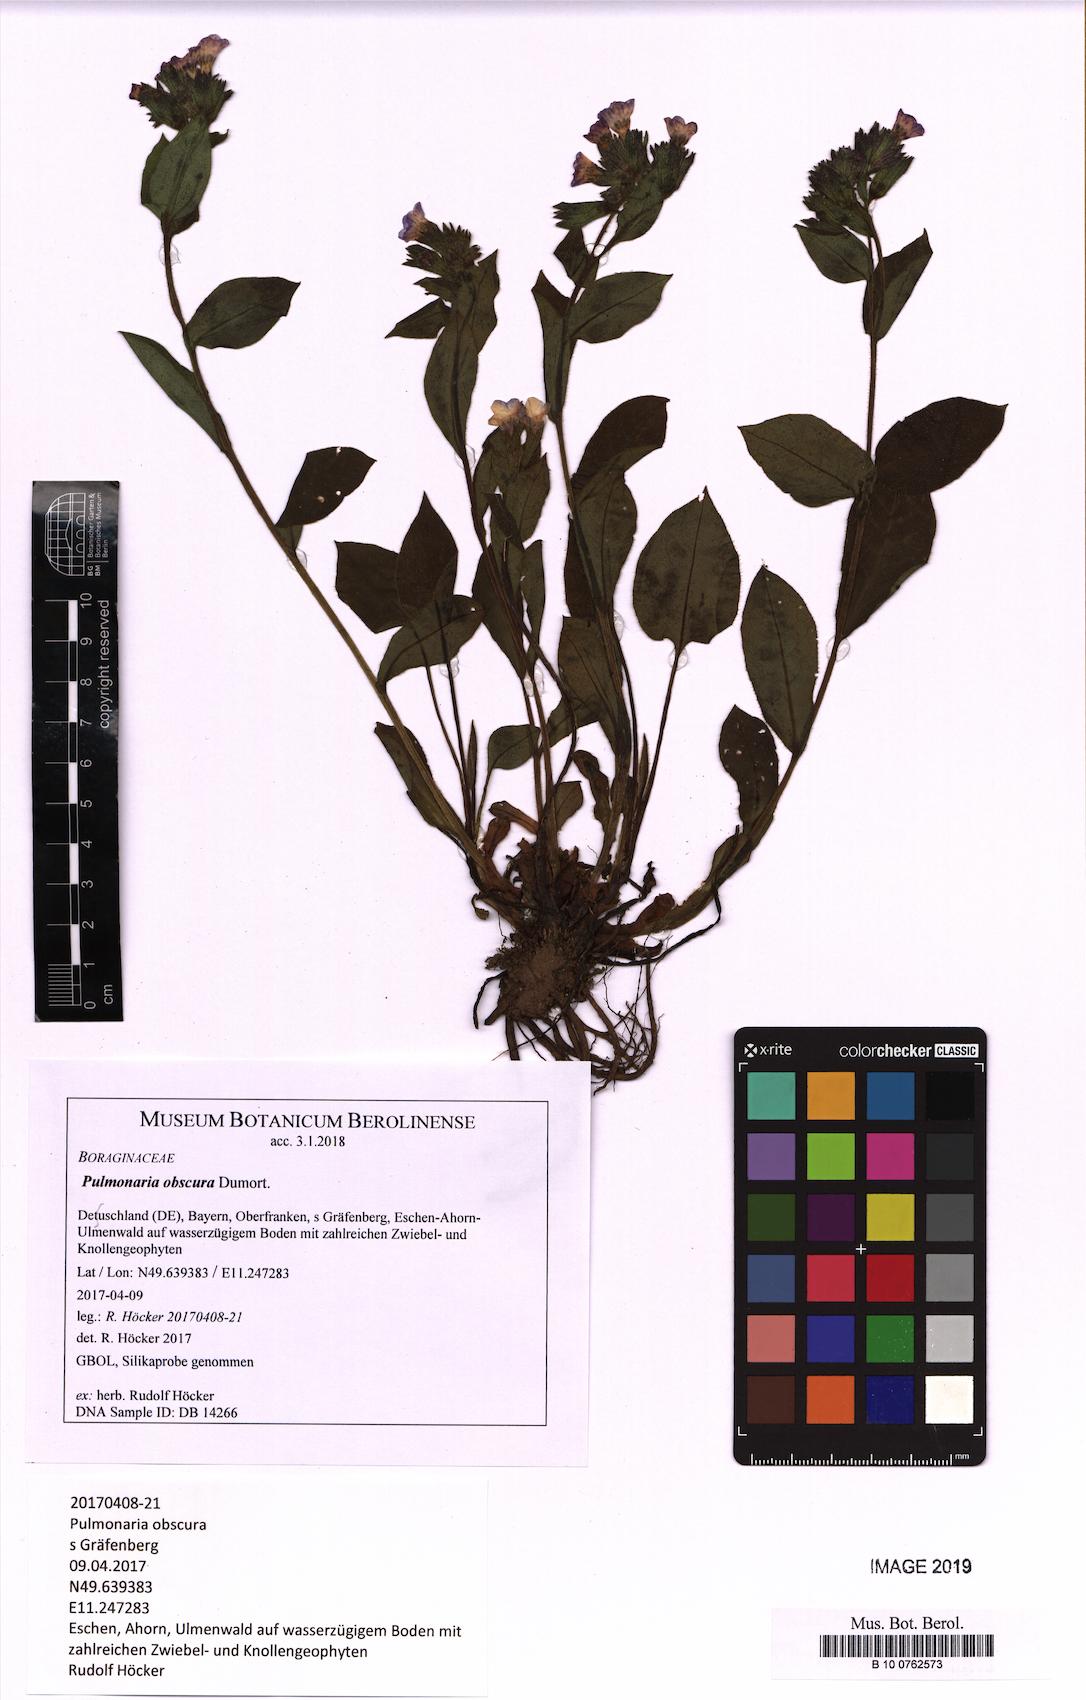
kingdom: Plantae
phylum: Tracheophyta
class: Magnoliopsida
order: Boraginales
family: Boraginaceae
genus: Pulmonaria
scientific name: Pulmonaria obscura
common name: Suffolk lungwort
